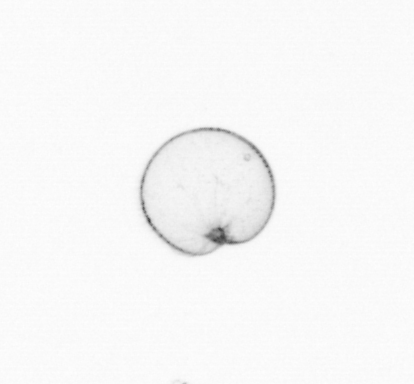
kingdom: Chromista
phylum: Myzozoa
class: Dinophyceae
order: Noctilucales
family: Noctilucaceae
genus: Noctiluca
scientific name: Noctiluca scintillans
